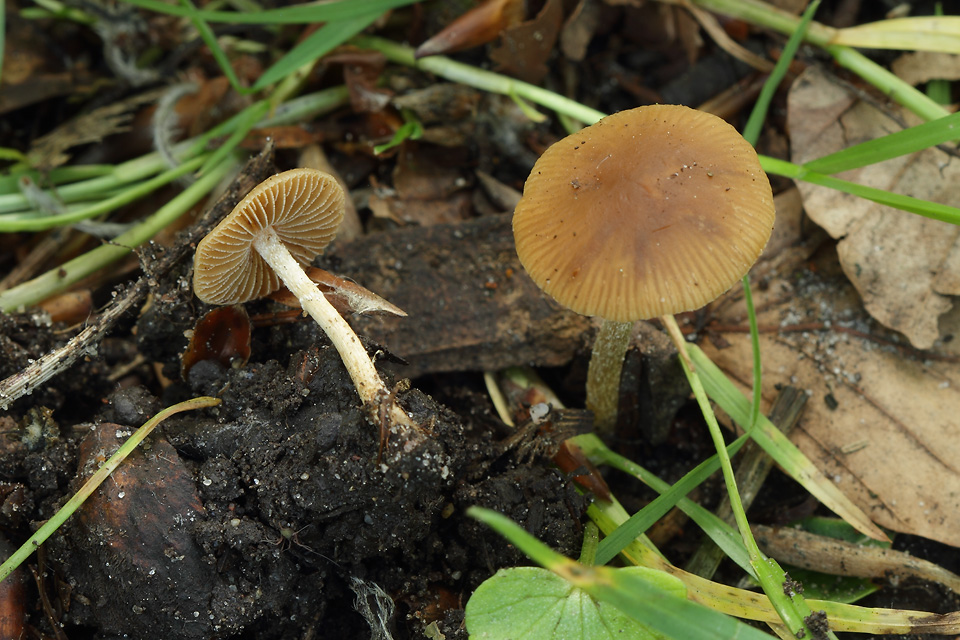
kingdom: Fungi
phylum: Basidiomycota
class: Agaricomycetes
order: Agaricales
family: Bolbitiaceae
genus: Conocybe
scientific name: Conocybe aporos
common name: tidlig dansehat
